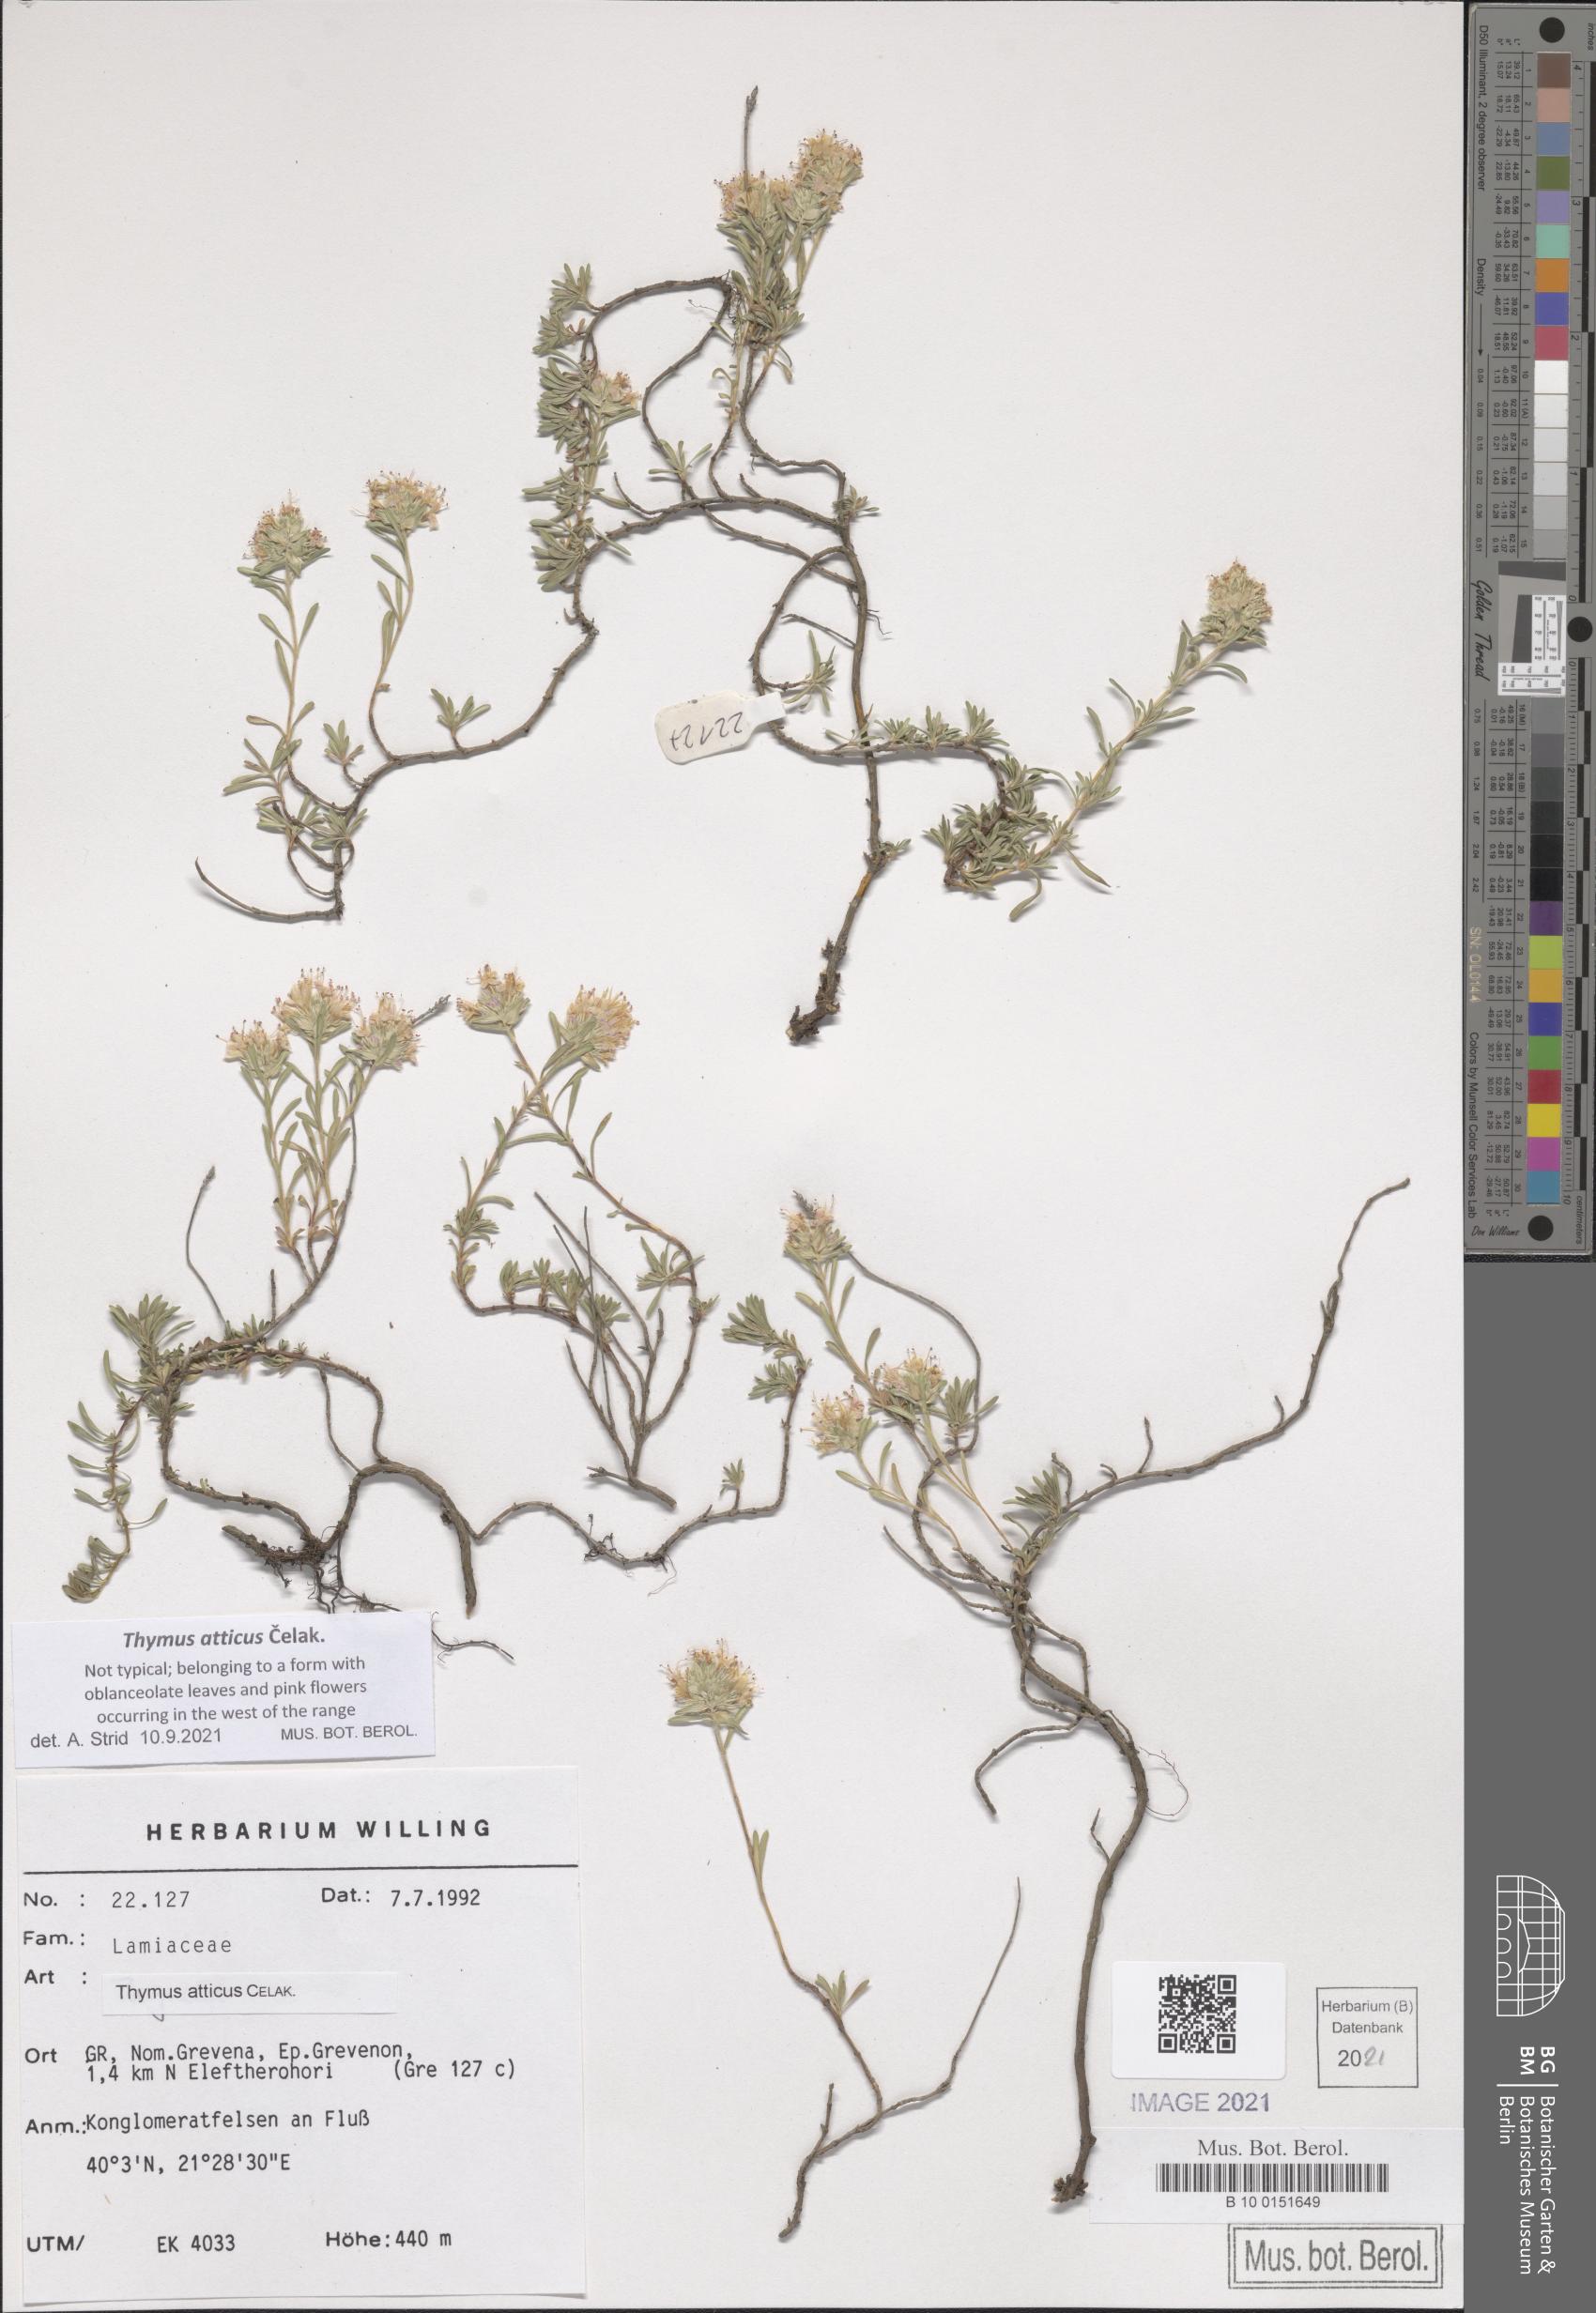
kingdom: Plantae
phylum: Tracheophyta
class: Magnoliopsida
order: Lamiales
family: Lamiaceae
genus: Thymus
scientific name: Thymus atticus
